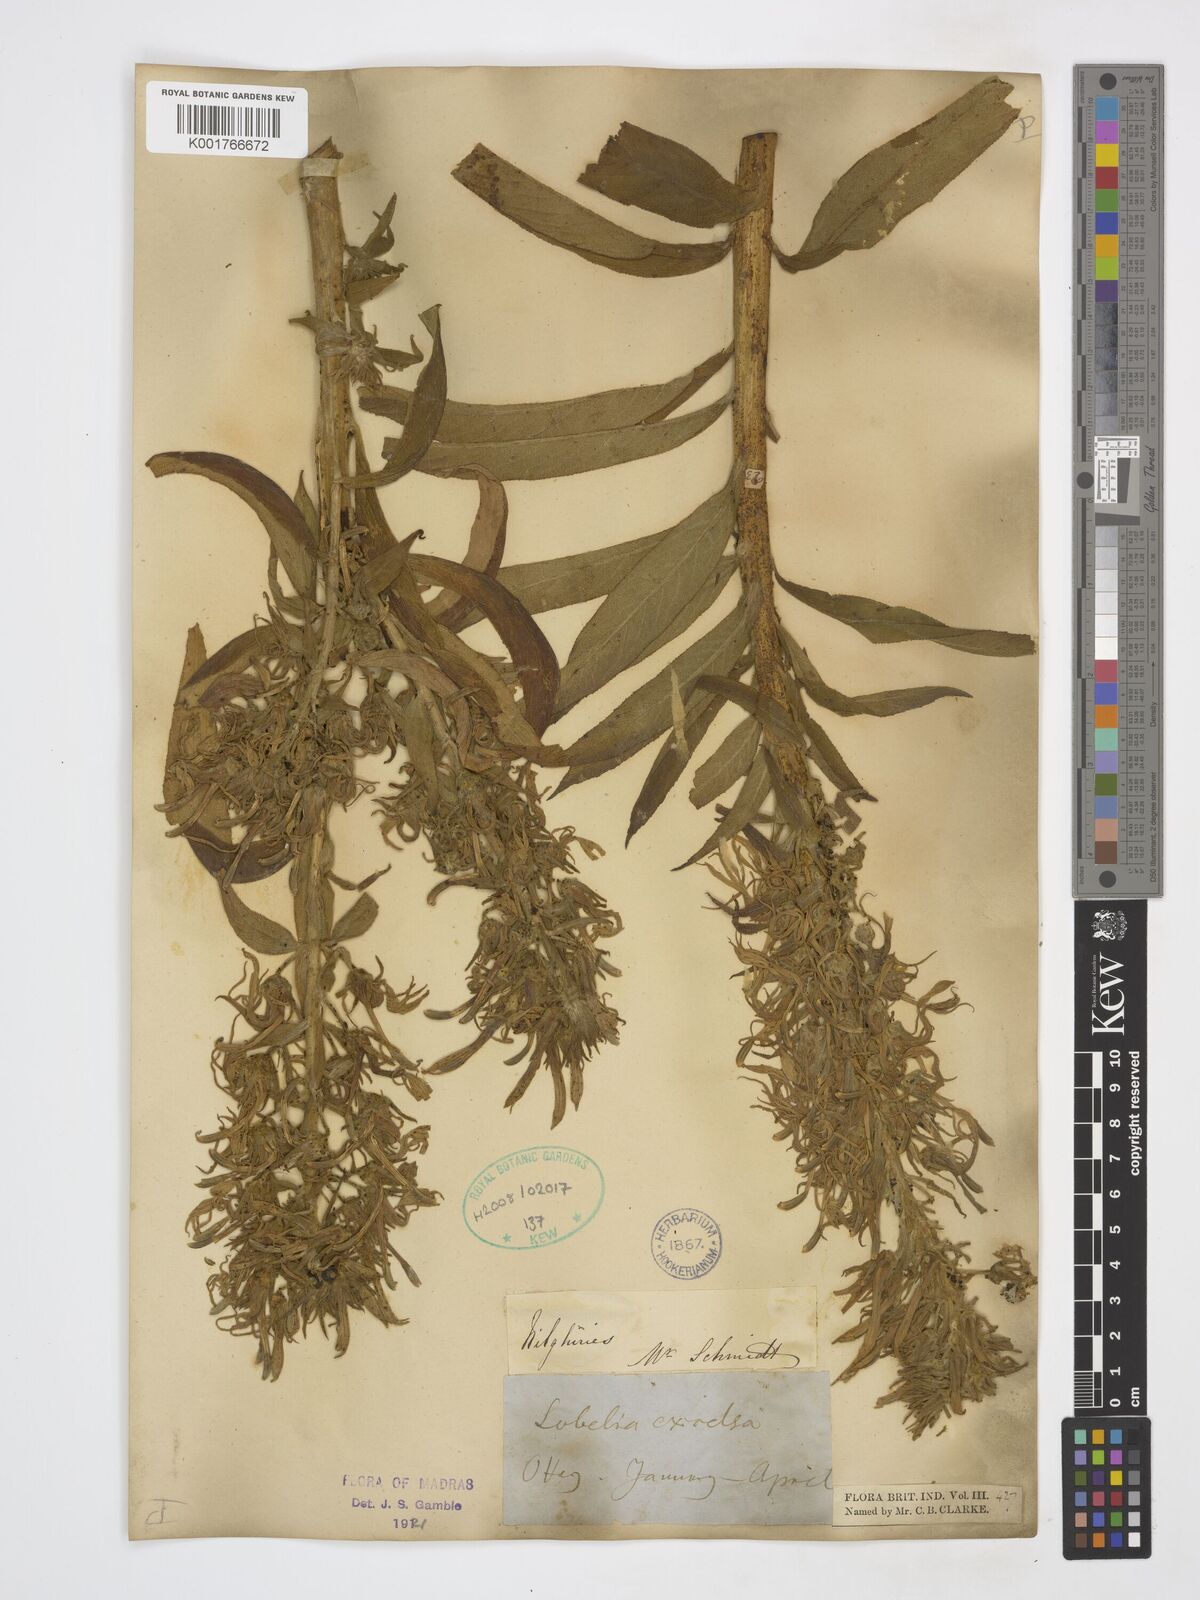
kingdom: Plantae
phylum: Tracheophyta
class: Magnoliopsida
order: Asterales
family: Campanulaceae
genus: Lobelia
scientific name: Lobelia excelsa
